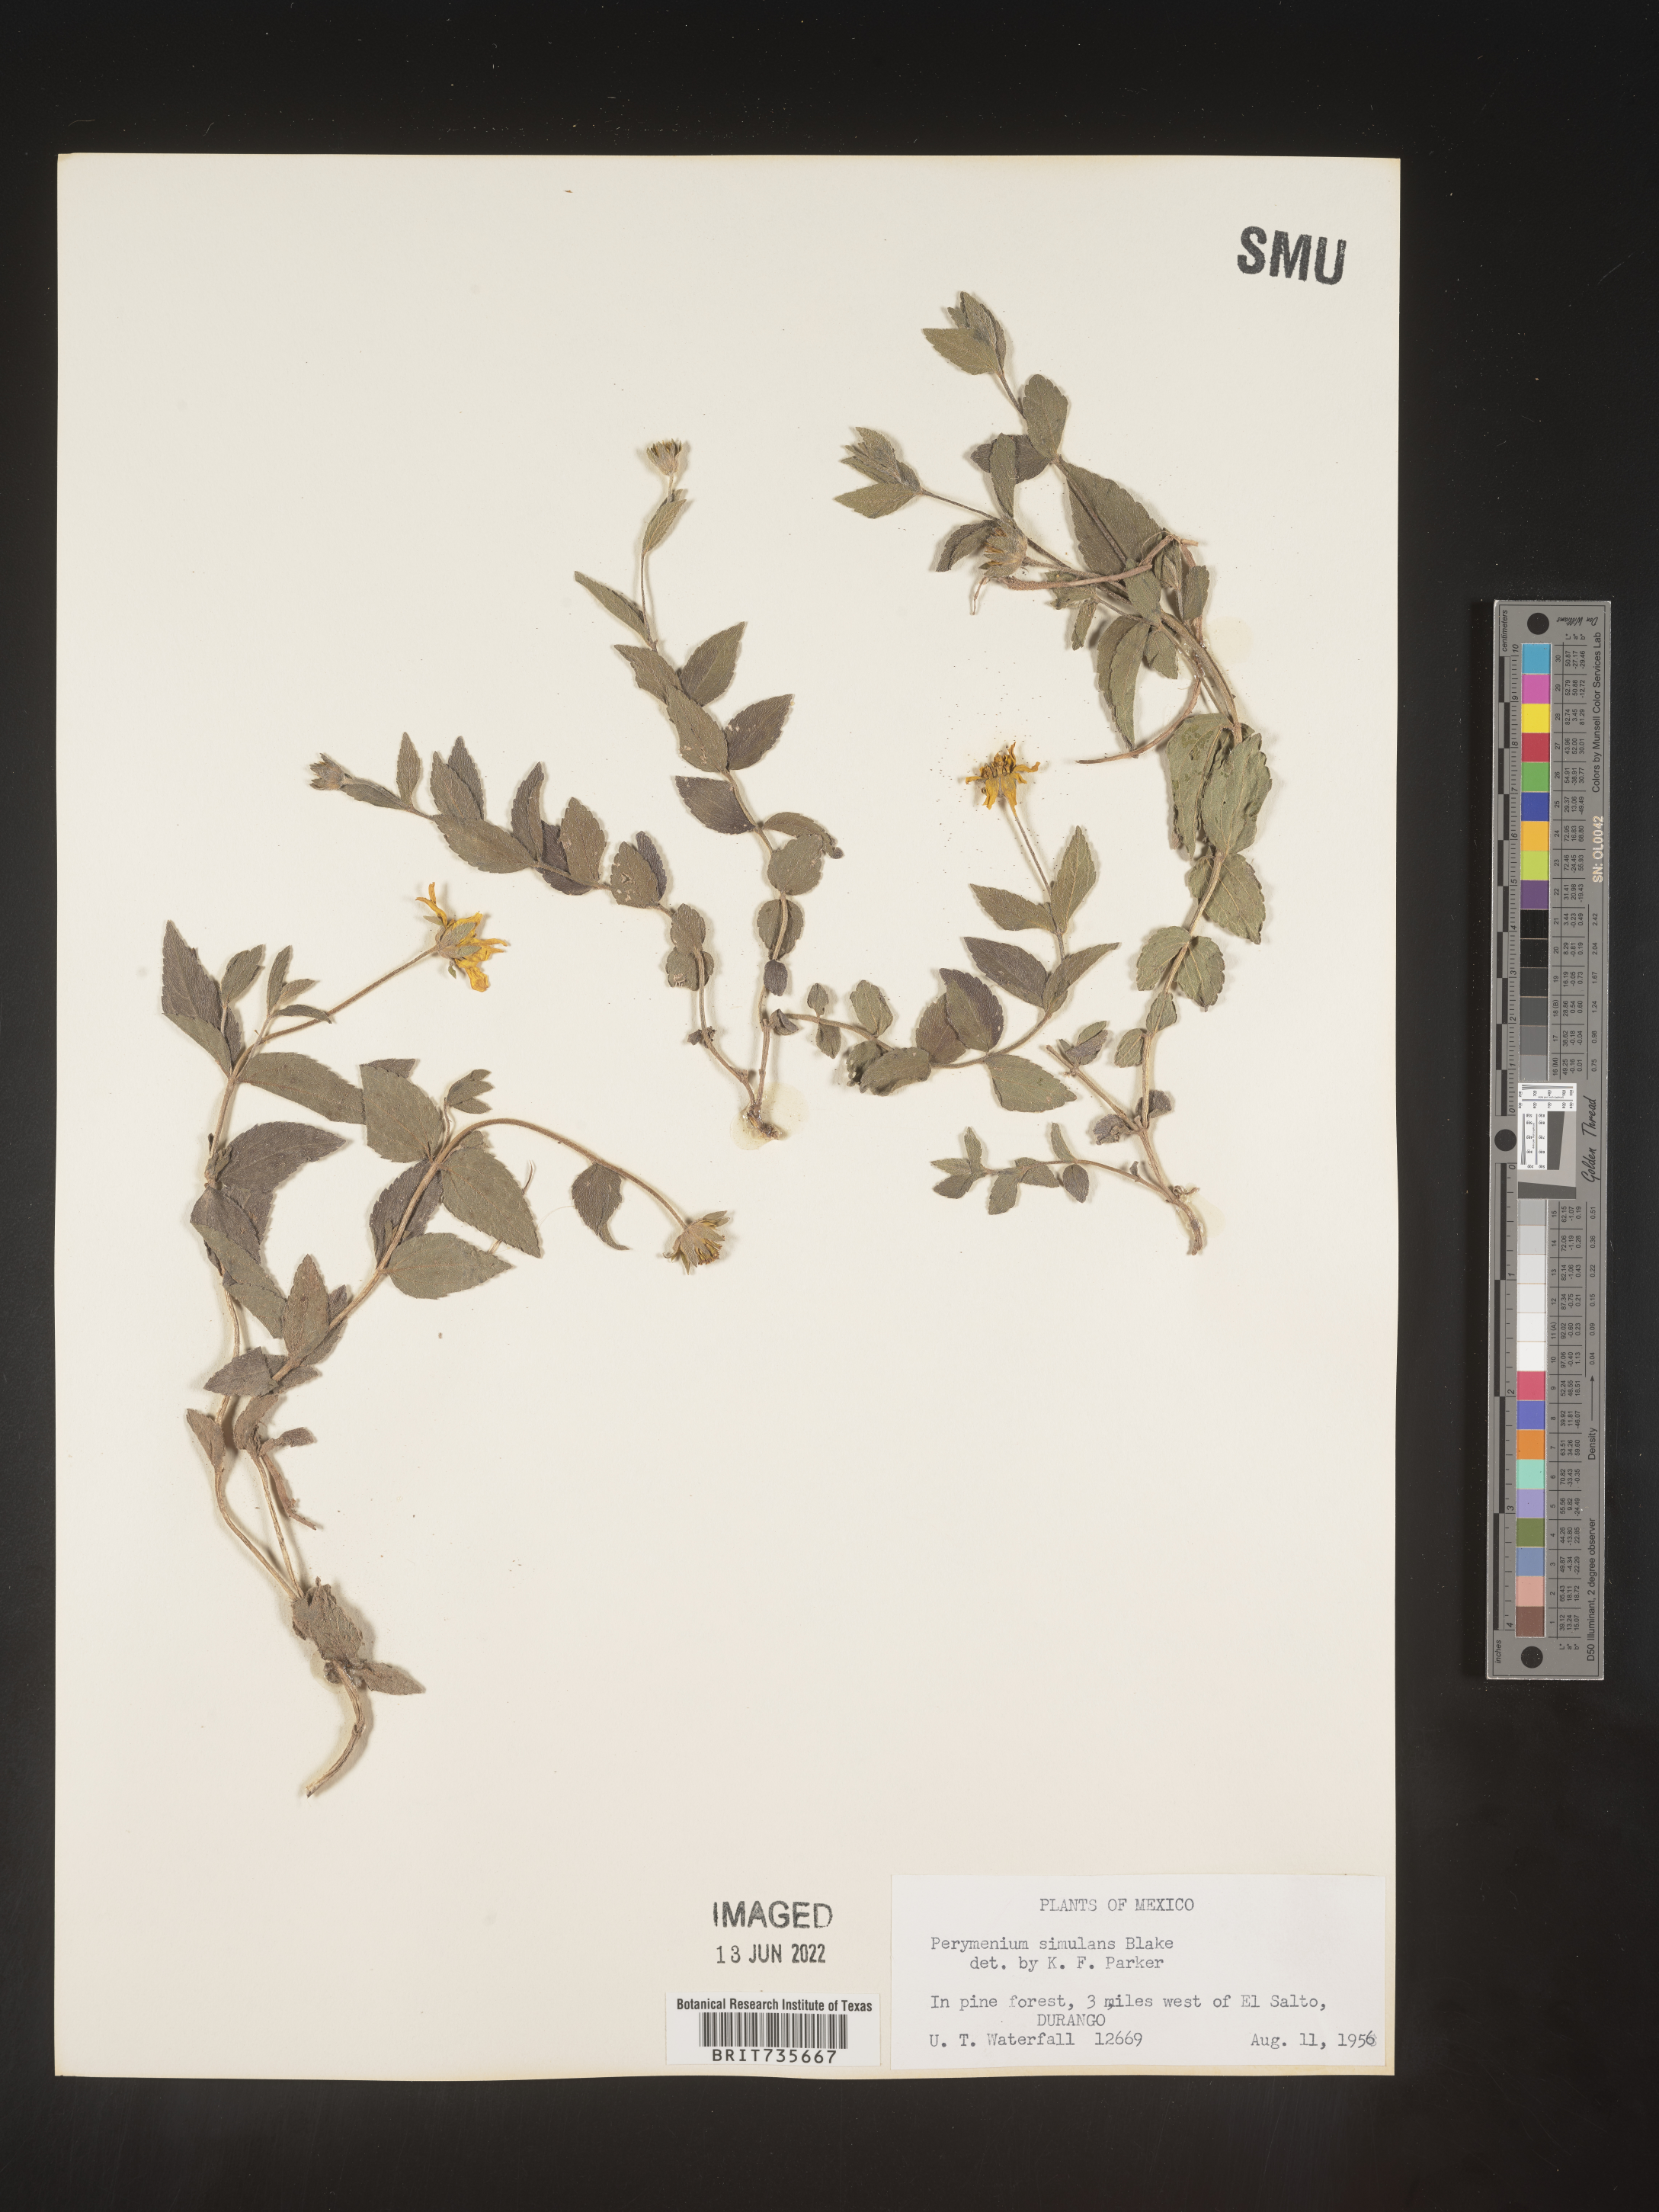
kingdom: Plantae
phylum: Tracheophyta
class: Magnoliopsida
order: Asterales
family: Asteraceae
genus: Perymenium
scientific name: Perymenium
